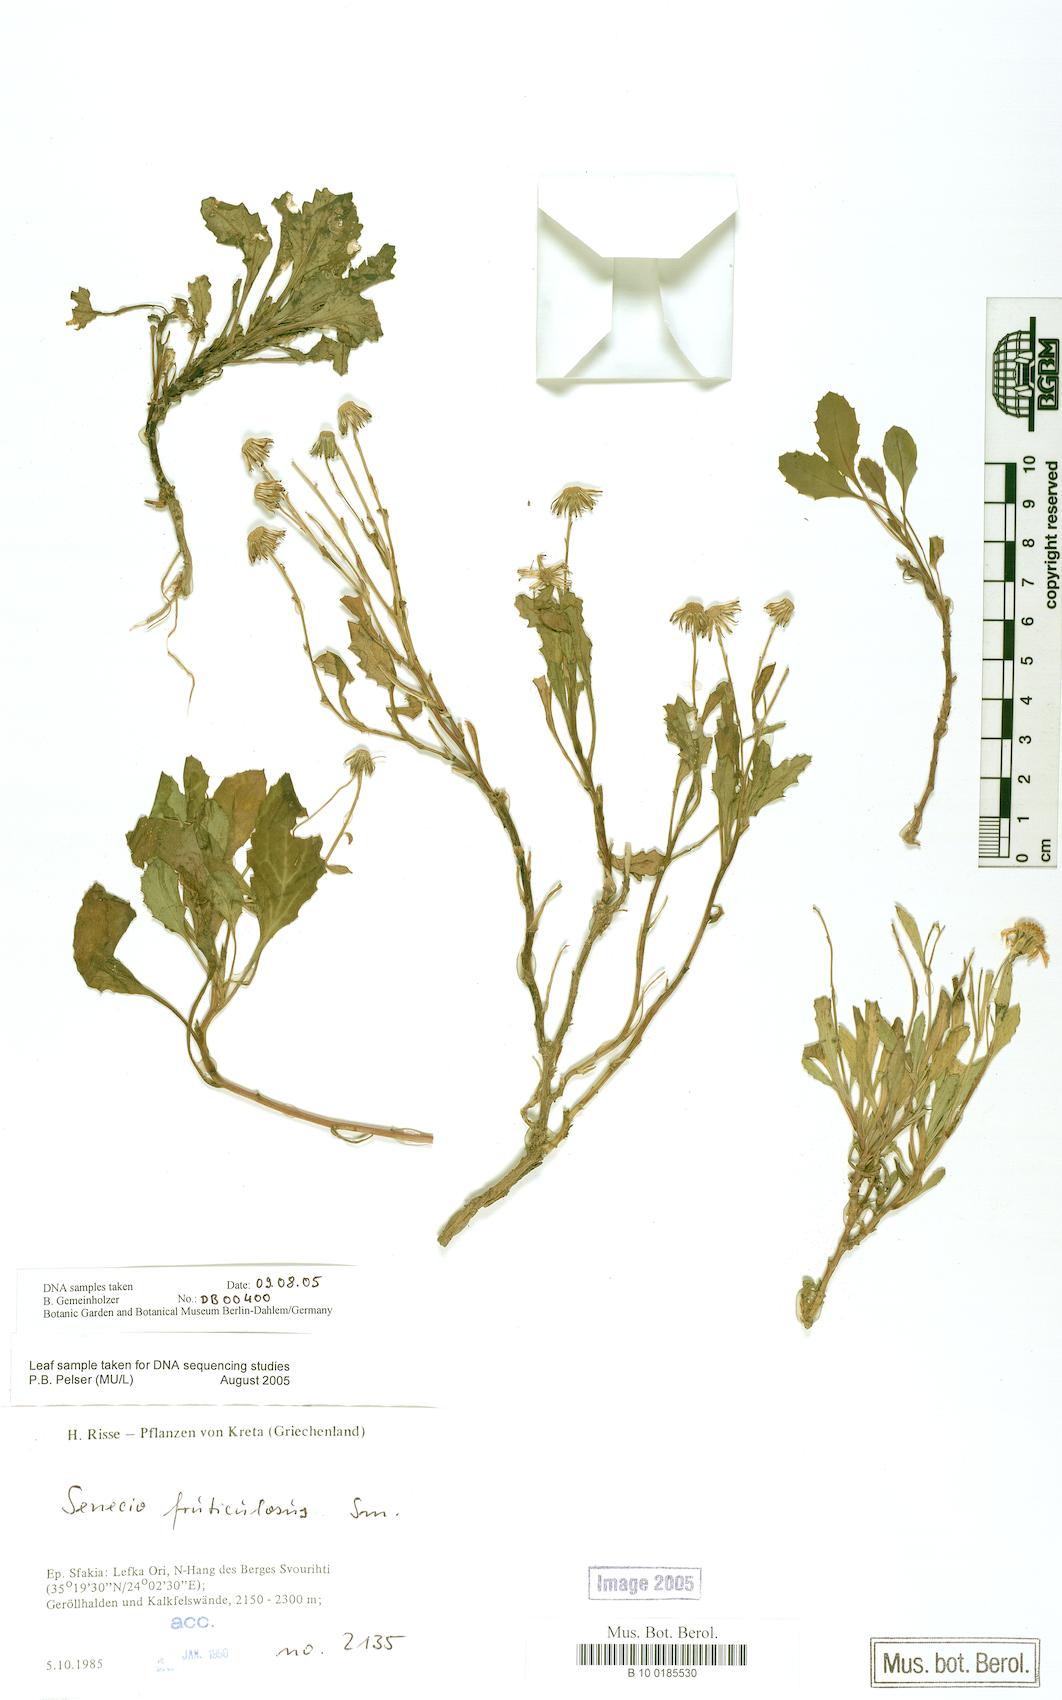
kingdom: Plantae
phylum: Tracheophyta
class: Magnoliopsida
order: Asterales
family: Asteraceae
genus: Senecio
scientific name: Senecio fruticulosus
